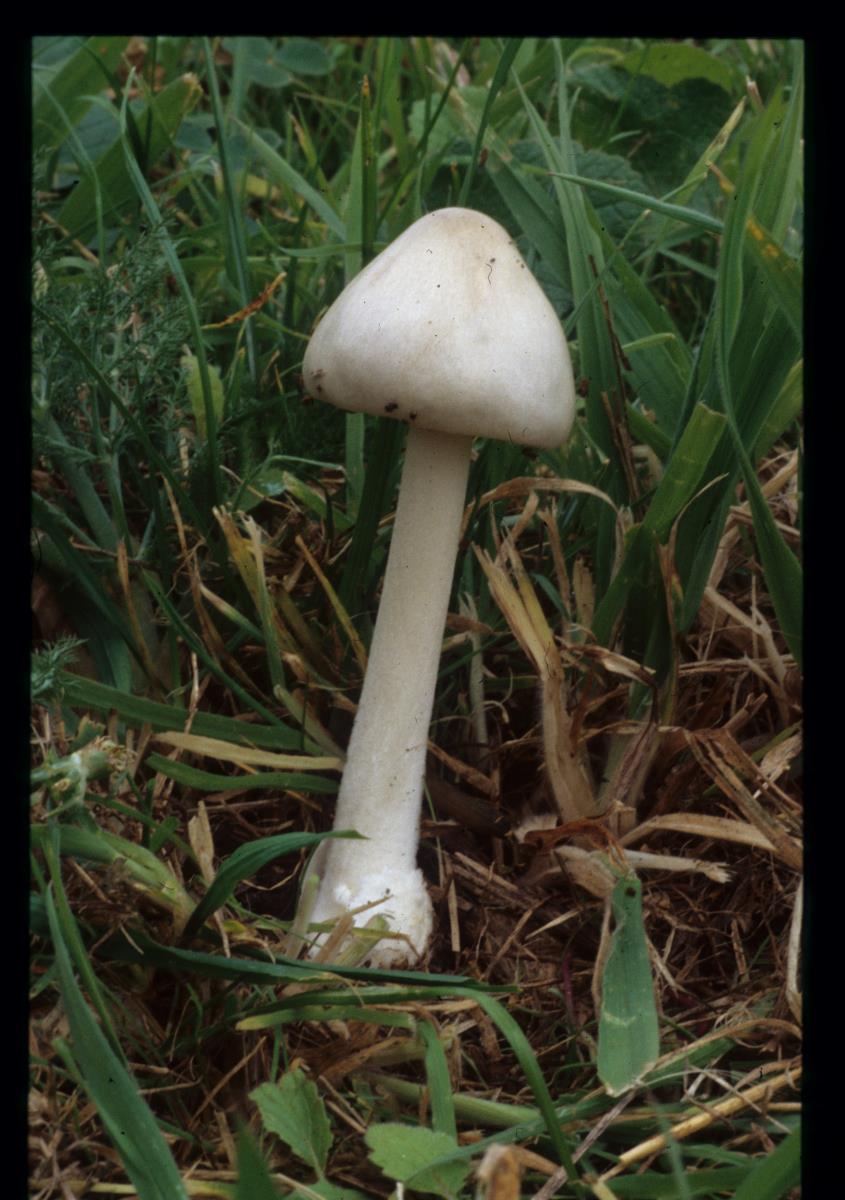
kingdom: Fungi
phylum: Basidiomycota
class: Agaricomycetes
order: Agaricales
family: Pluteaceae
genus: Volvopluteus
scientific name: Volvopluteus gloiocephalus
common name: Stubble rosegill
